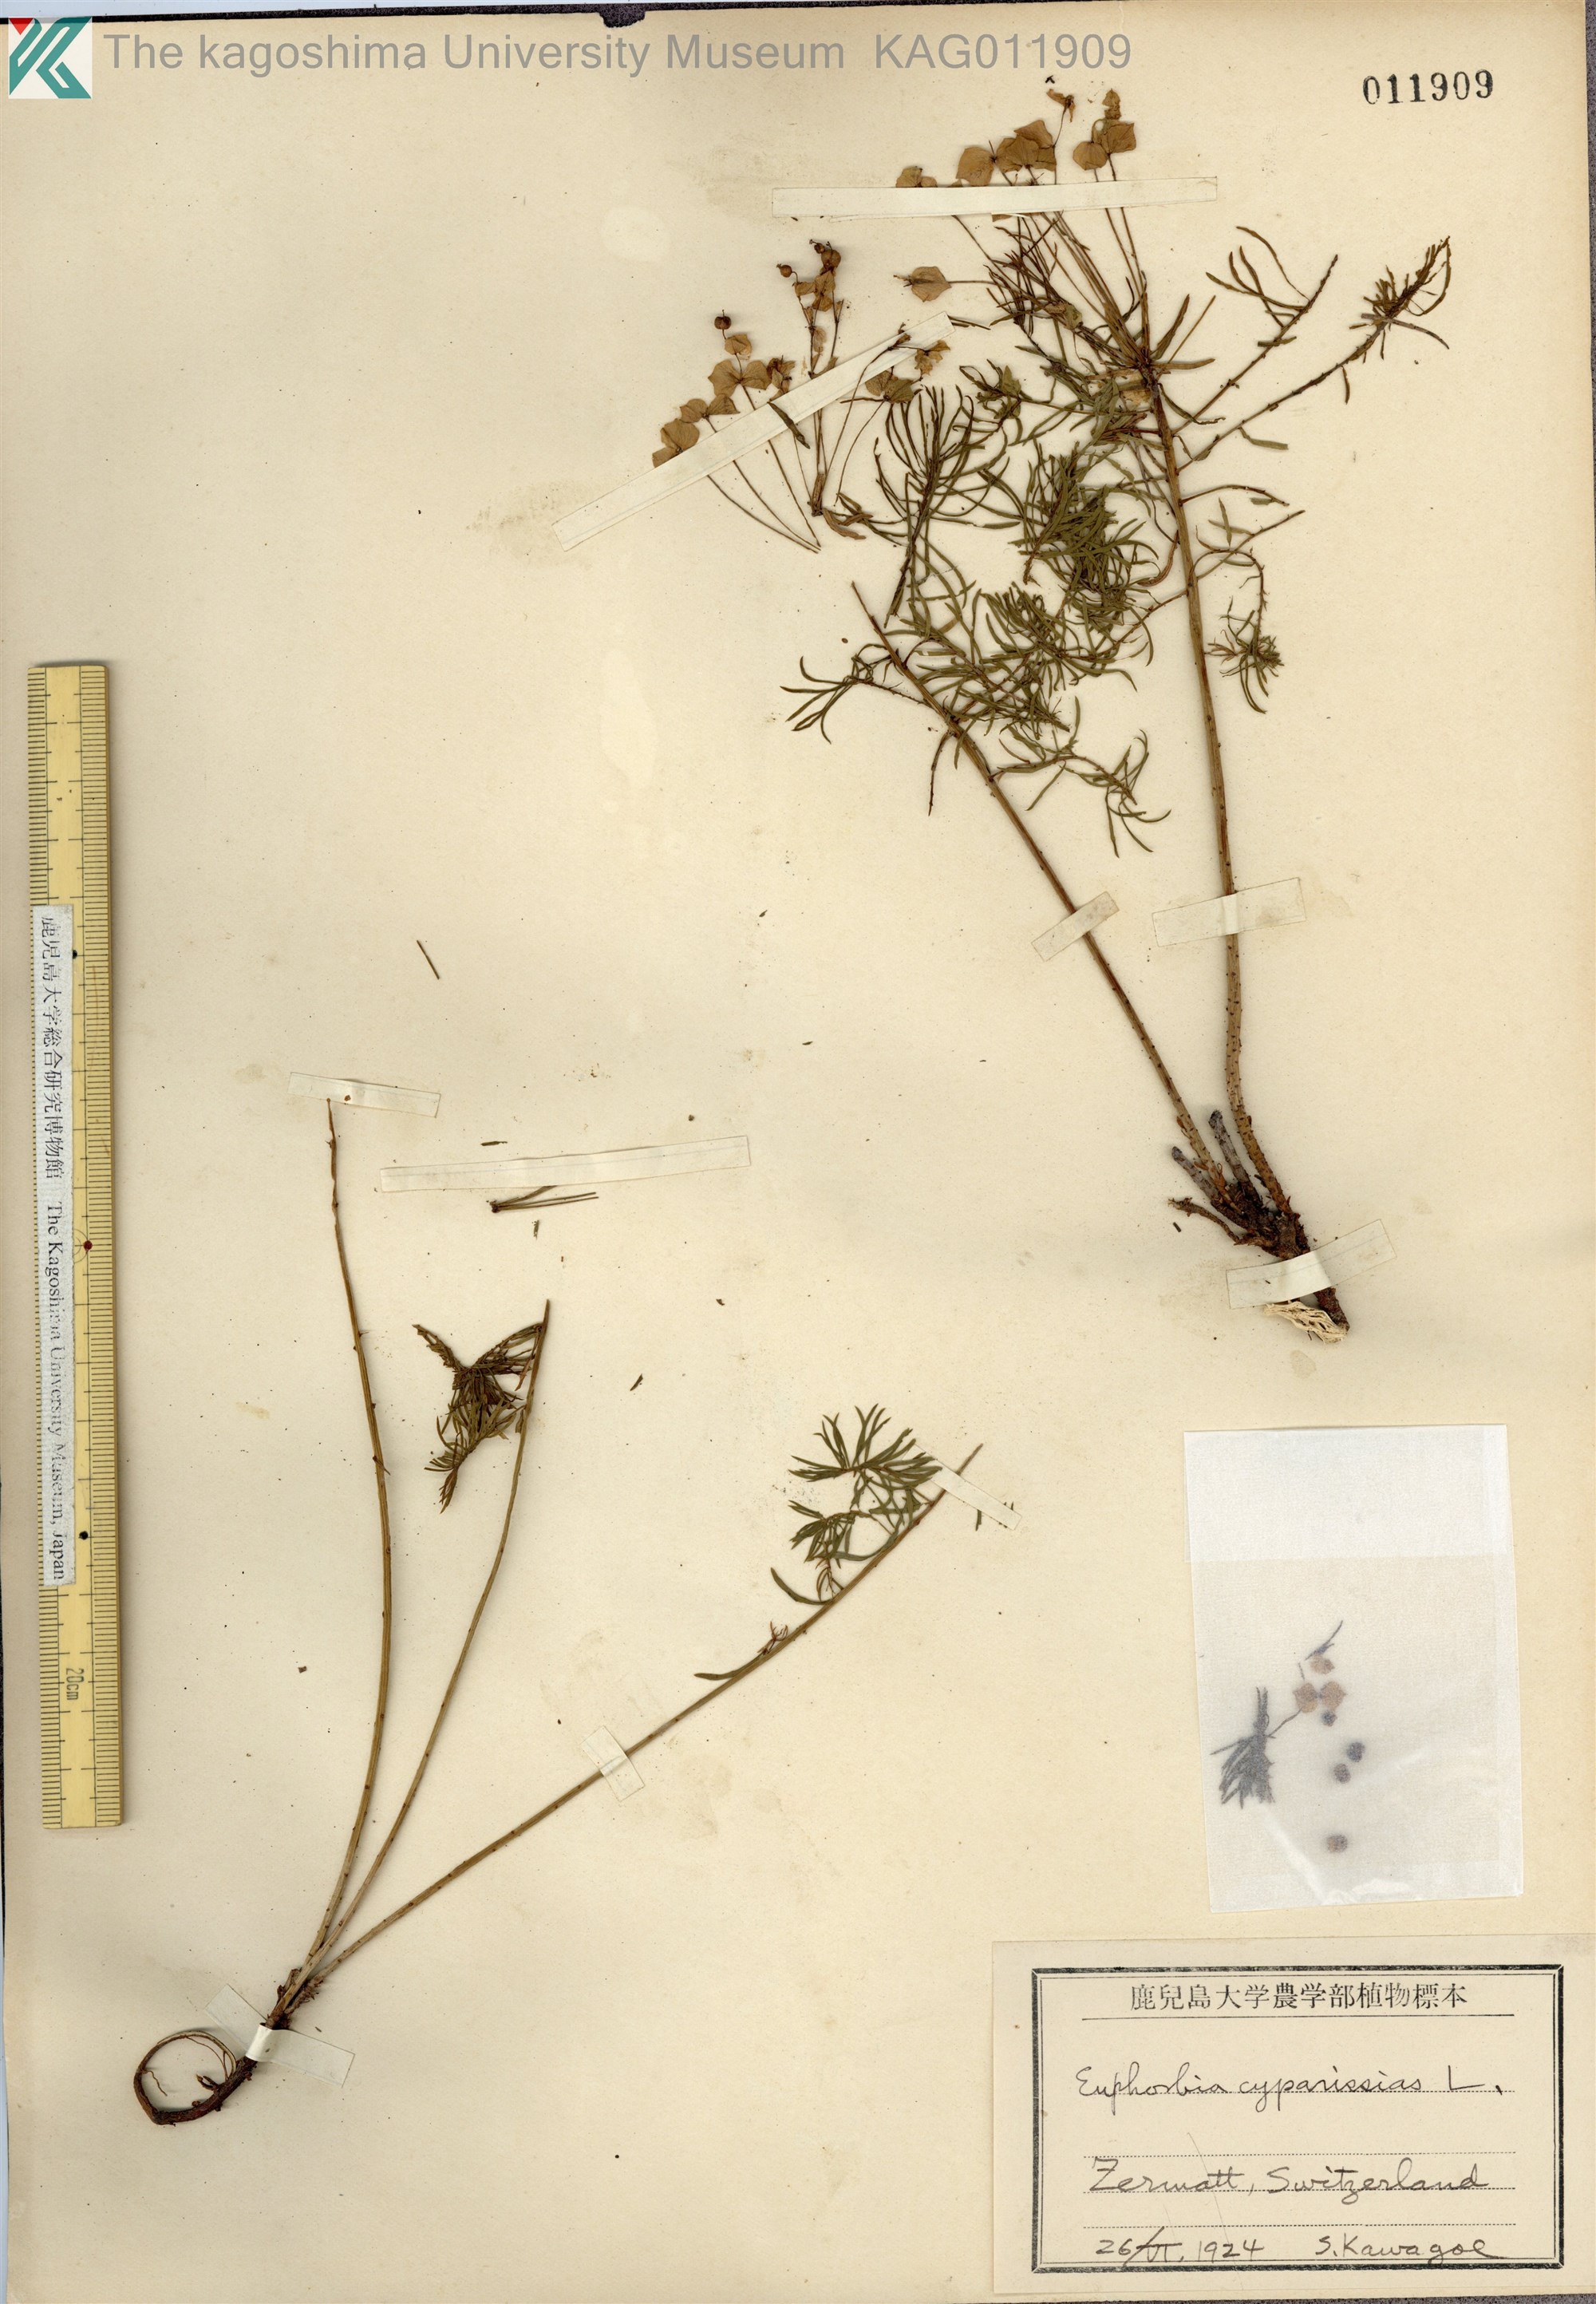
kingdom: Plantae
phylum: Tracheophyta
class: Magnoliopsida
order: Malpighiales
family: Euphorbiaceae
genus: Euphorbia
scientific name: Euphorbia cyparissias
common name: Cypress spurge
